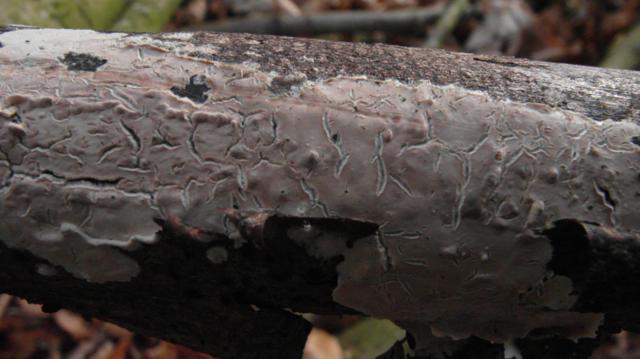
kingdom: Fungi
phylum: Basidiomycota
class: Agaricomycetes
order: Agaricales
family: Physalacriaceae
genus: Cylindrobasidium
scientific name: Cylindrobasidium evolvens
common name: sprækkehinde
